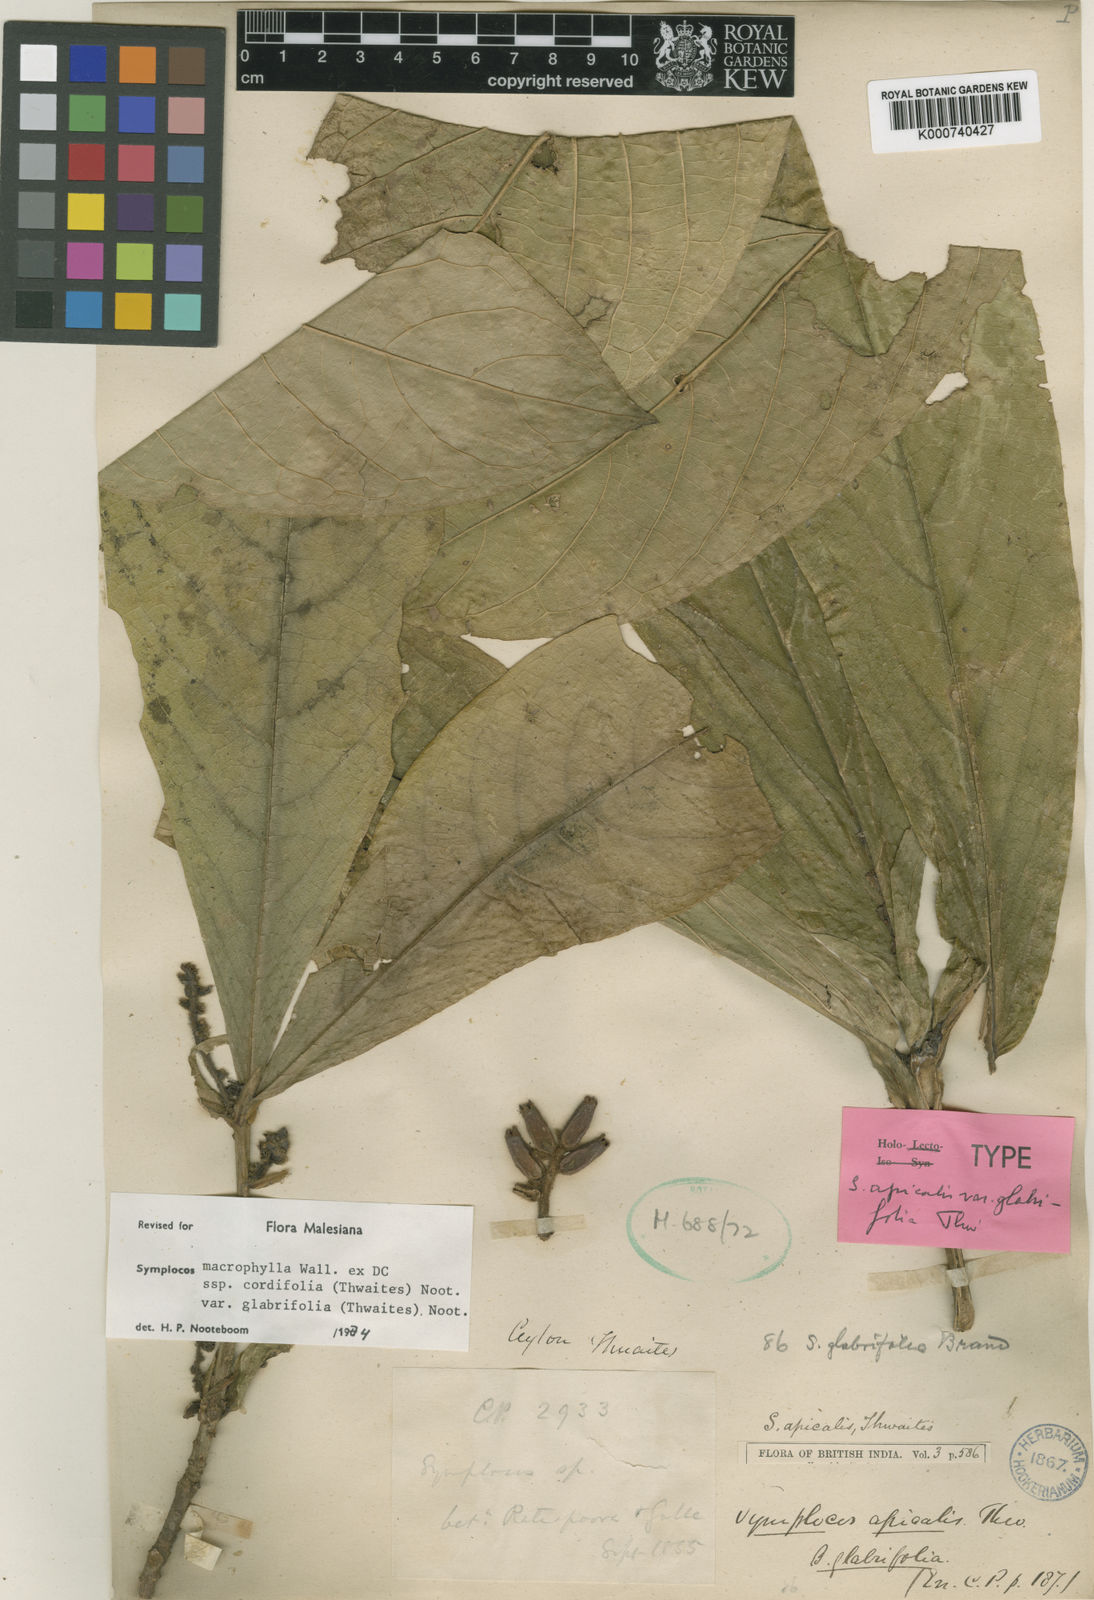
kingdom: Plantae
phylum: Tracheophyta
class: Magnoliopsida
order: Ericales
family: Symplocaceae
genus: Symplocos
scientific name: Symplocos
